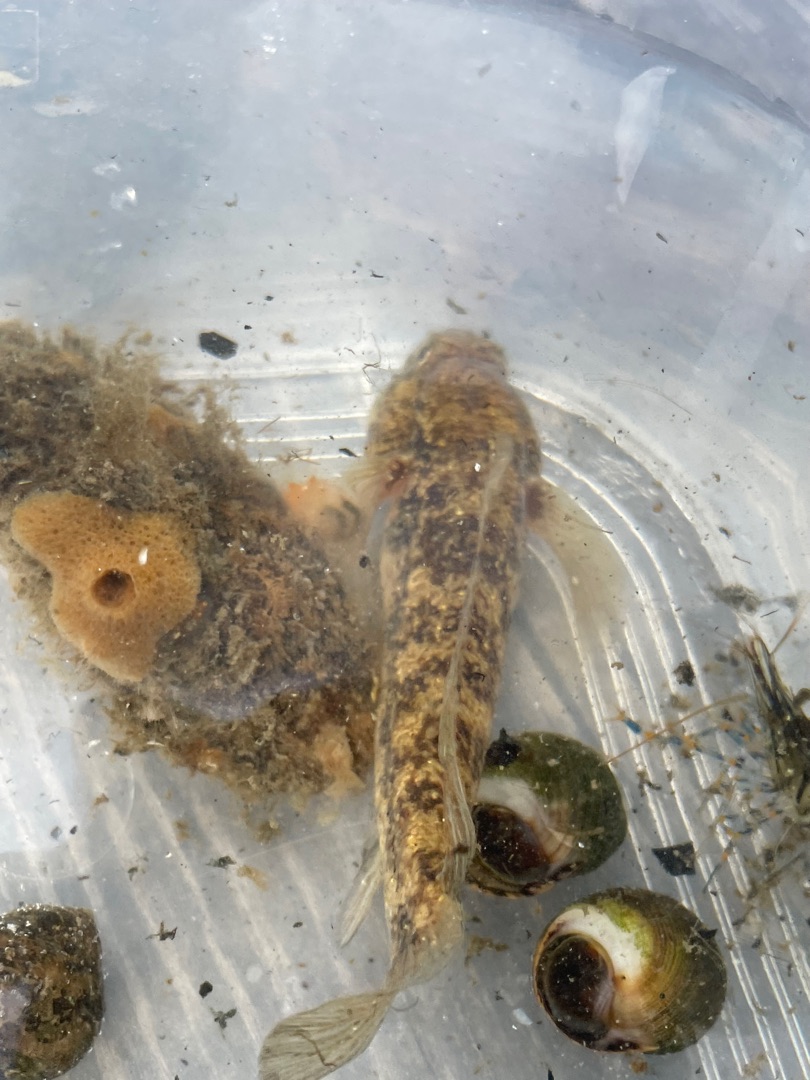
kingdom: Animalia
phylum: Chordata
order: Perciformes
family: Gobiidae
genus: Gobius
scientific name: Gobius niger
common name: Sortkutling
